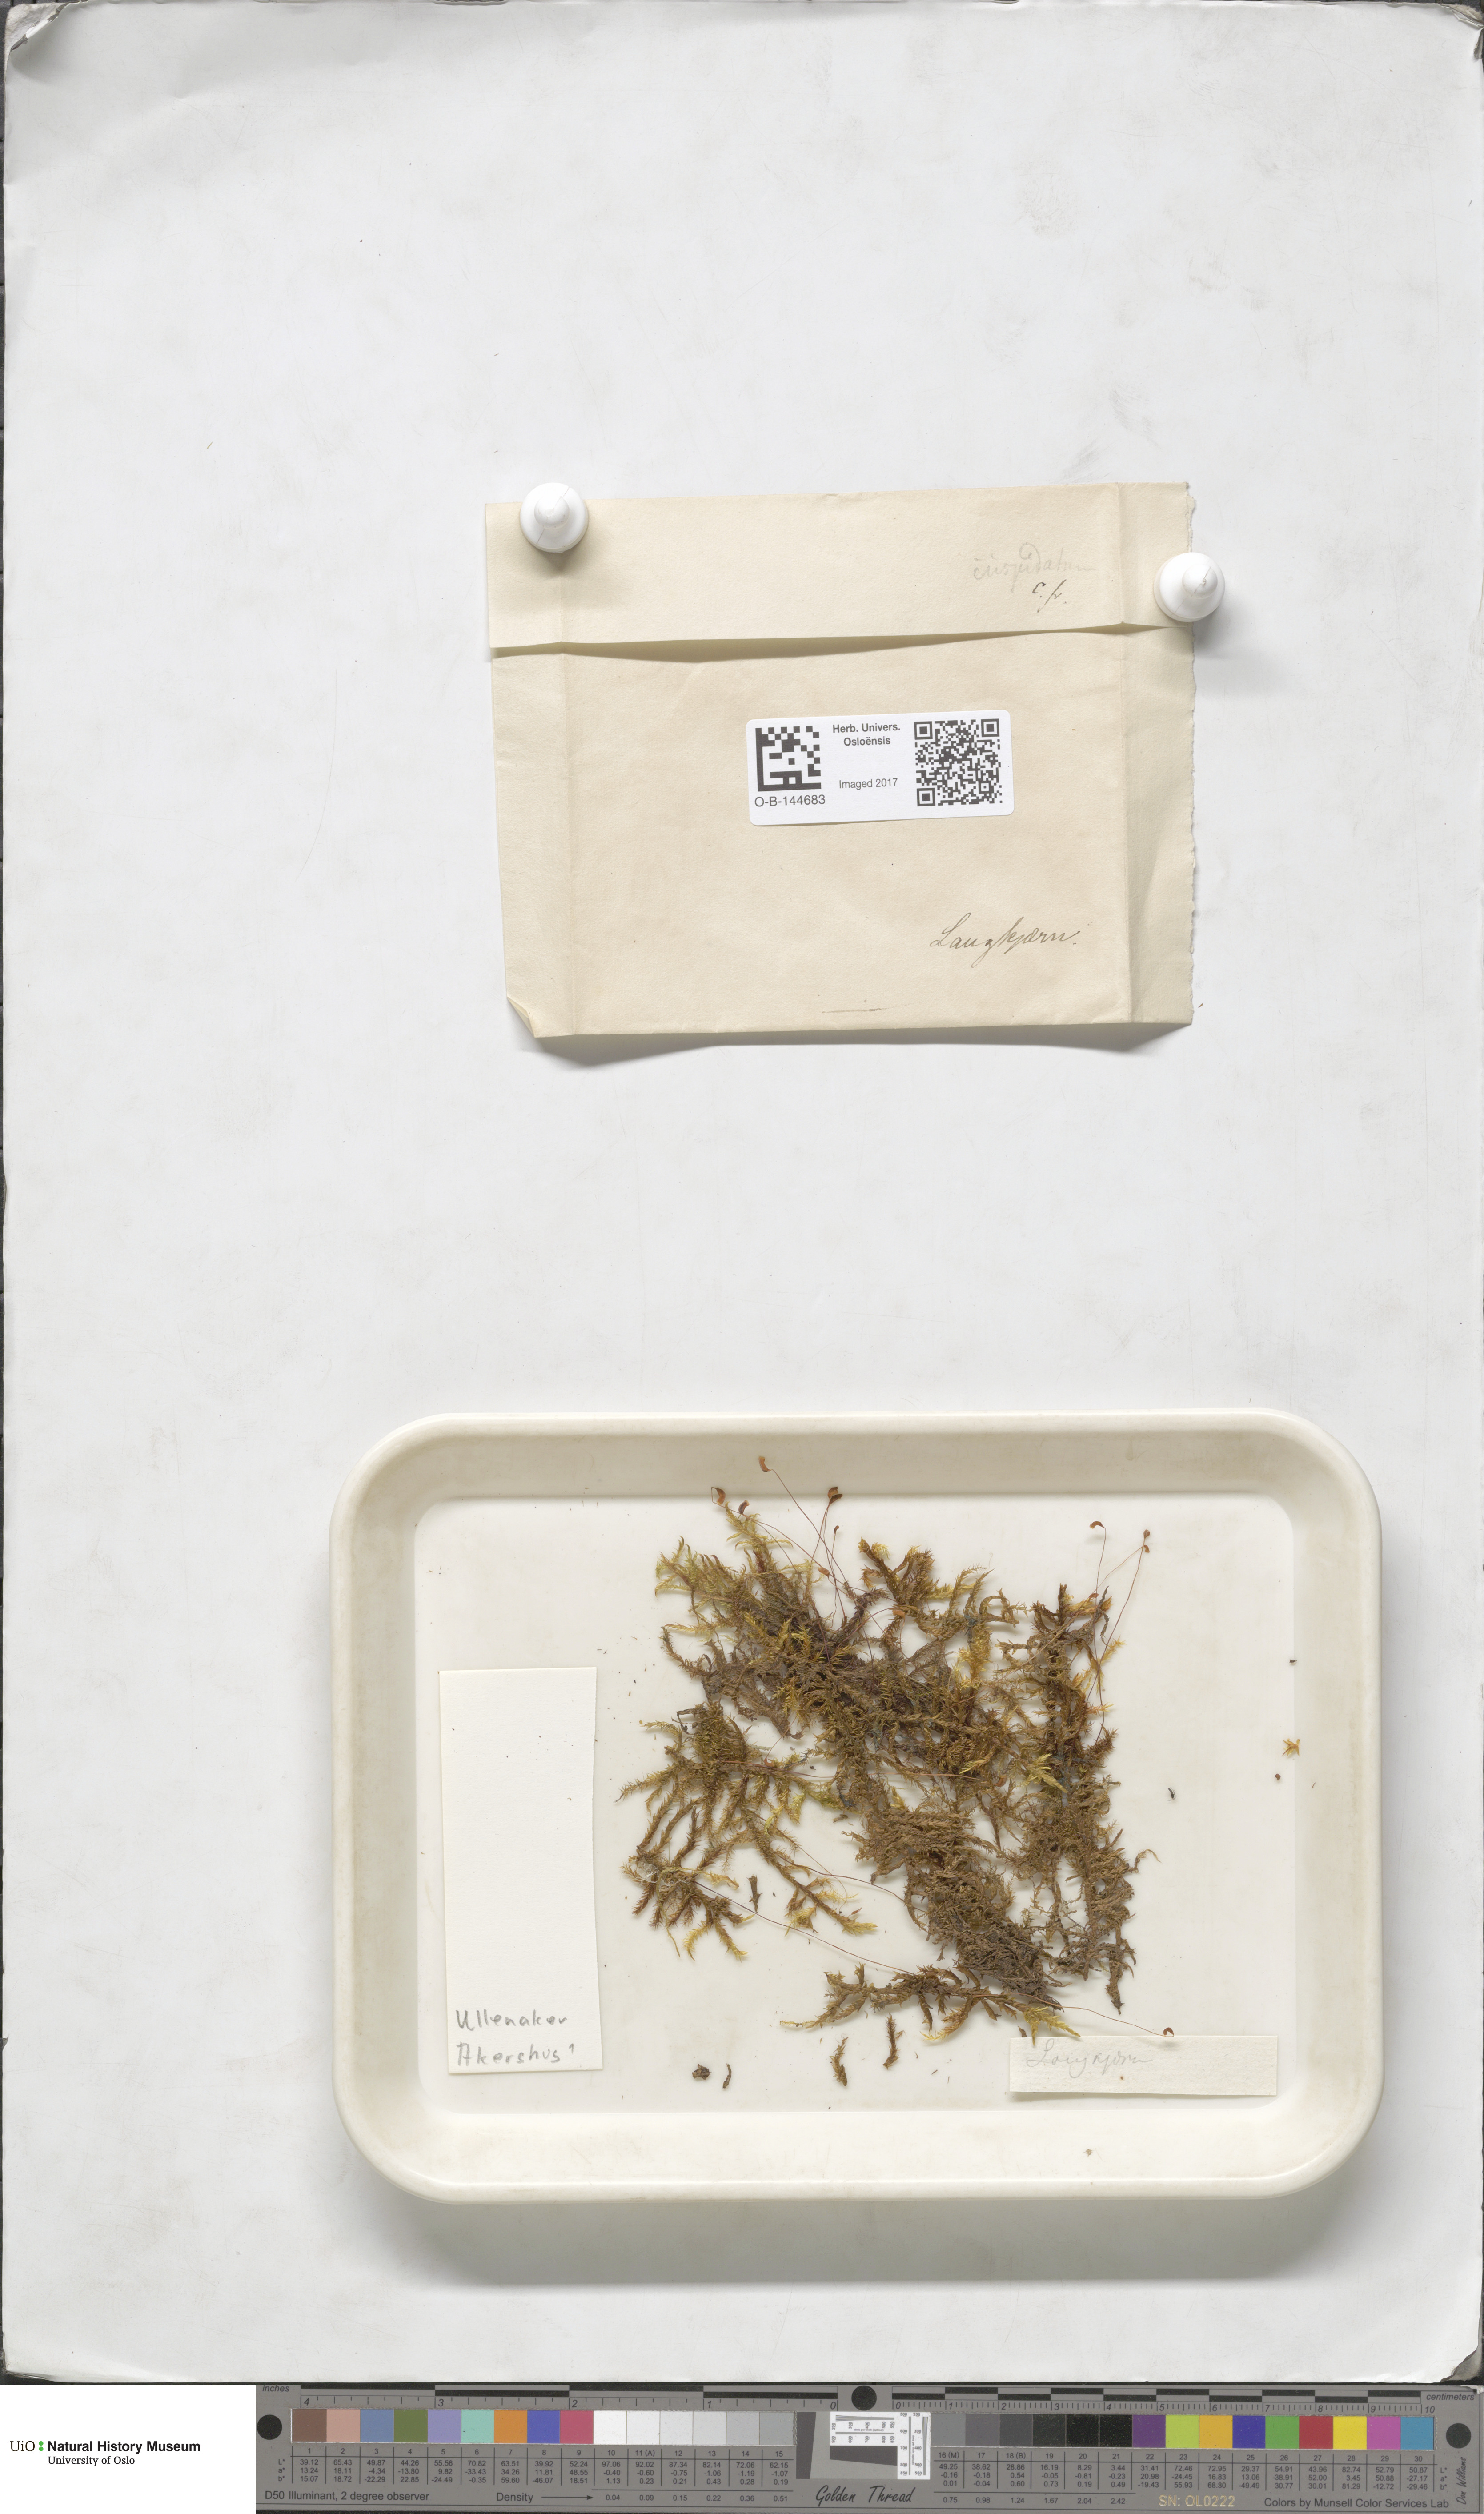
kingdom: Plantae
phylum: Bryophyta
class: Bryopsida
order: Hypnales
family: Pylaisiaceae
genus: Calliergonella
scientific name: Calliergonella cuspidata
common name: Common large wetland moss
